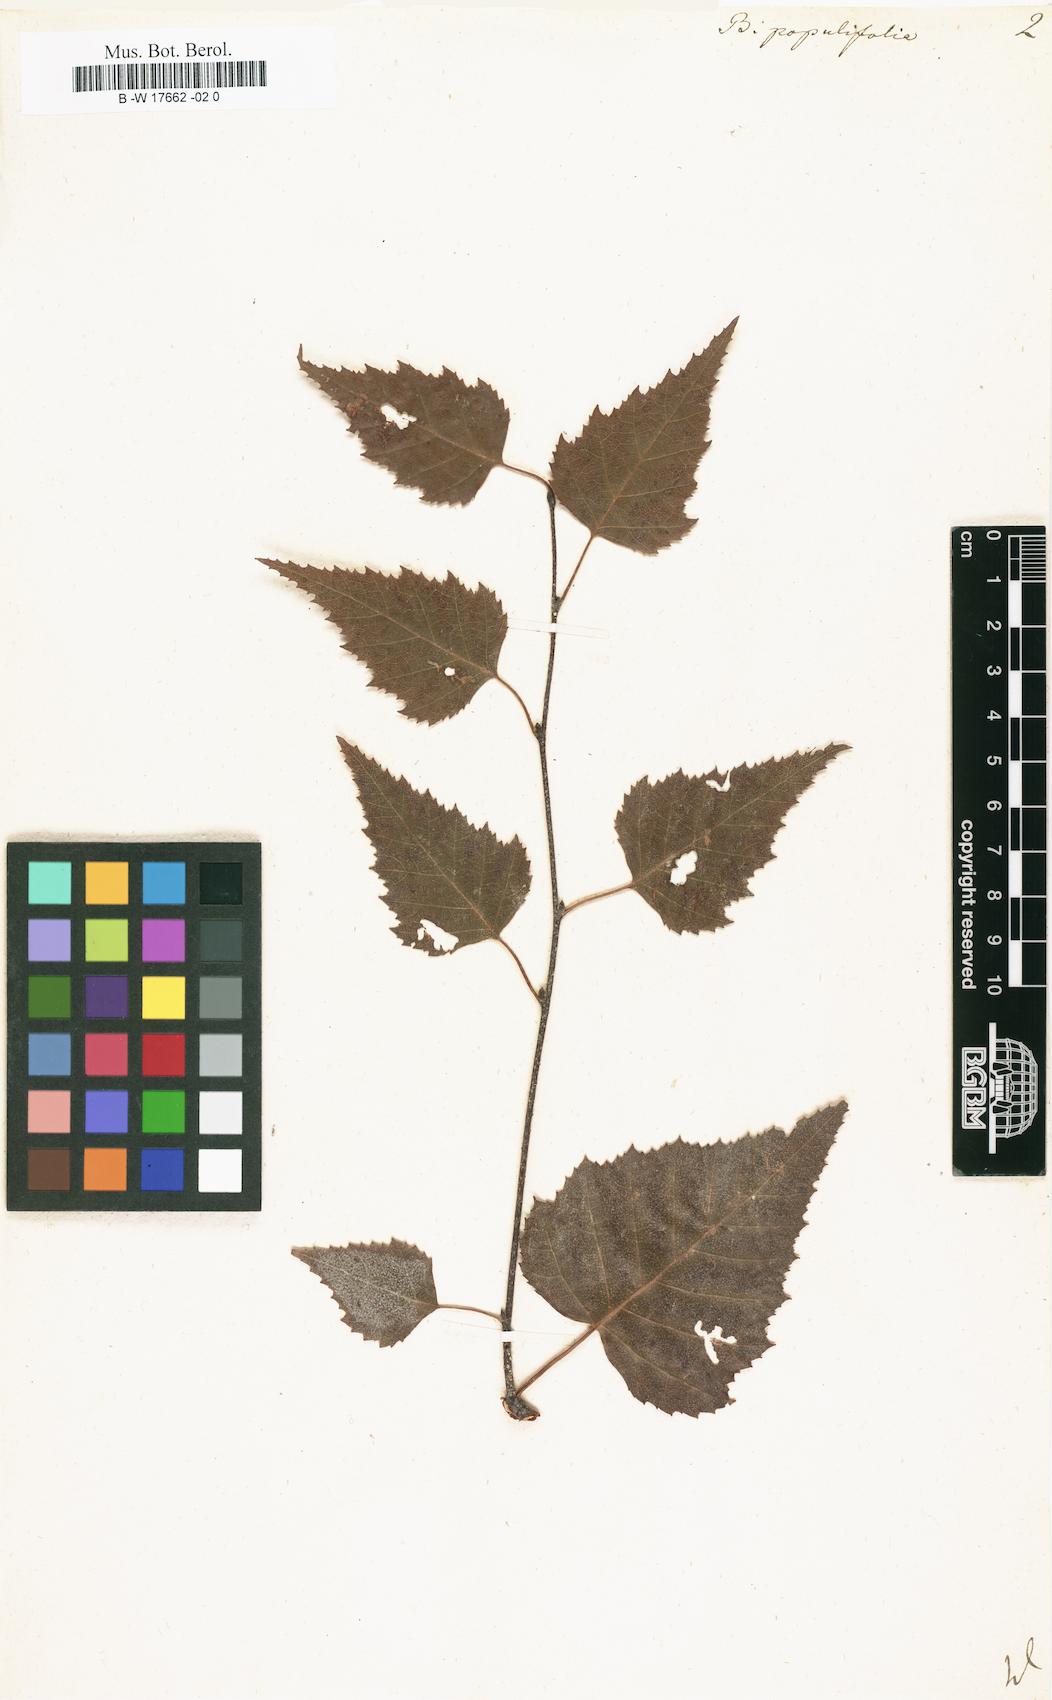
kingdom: Plantae
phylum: Tracheophyta
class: Magnoliopsida
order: Fagales
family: Betulaceae
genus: Betula
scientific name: Betula pubescens
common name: Downy birch
